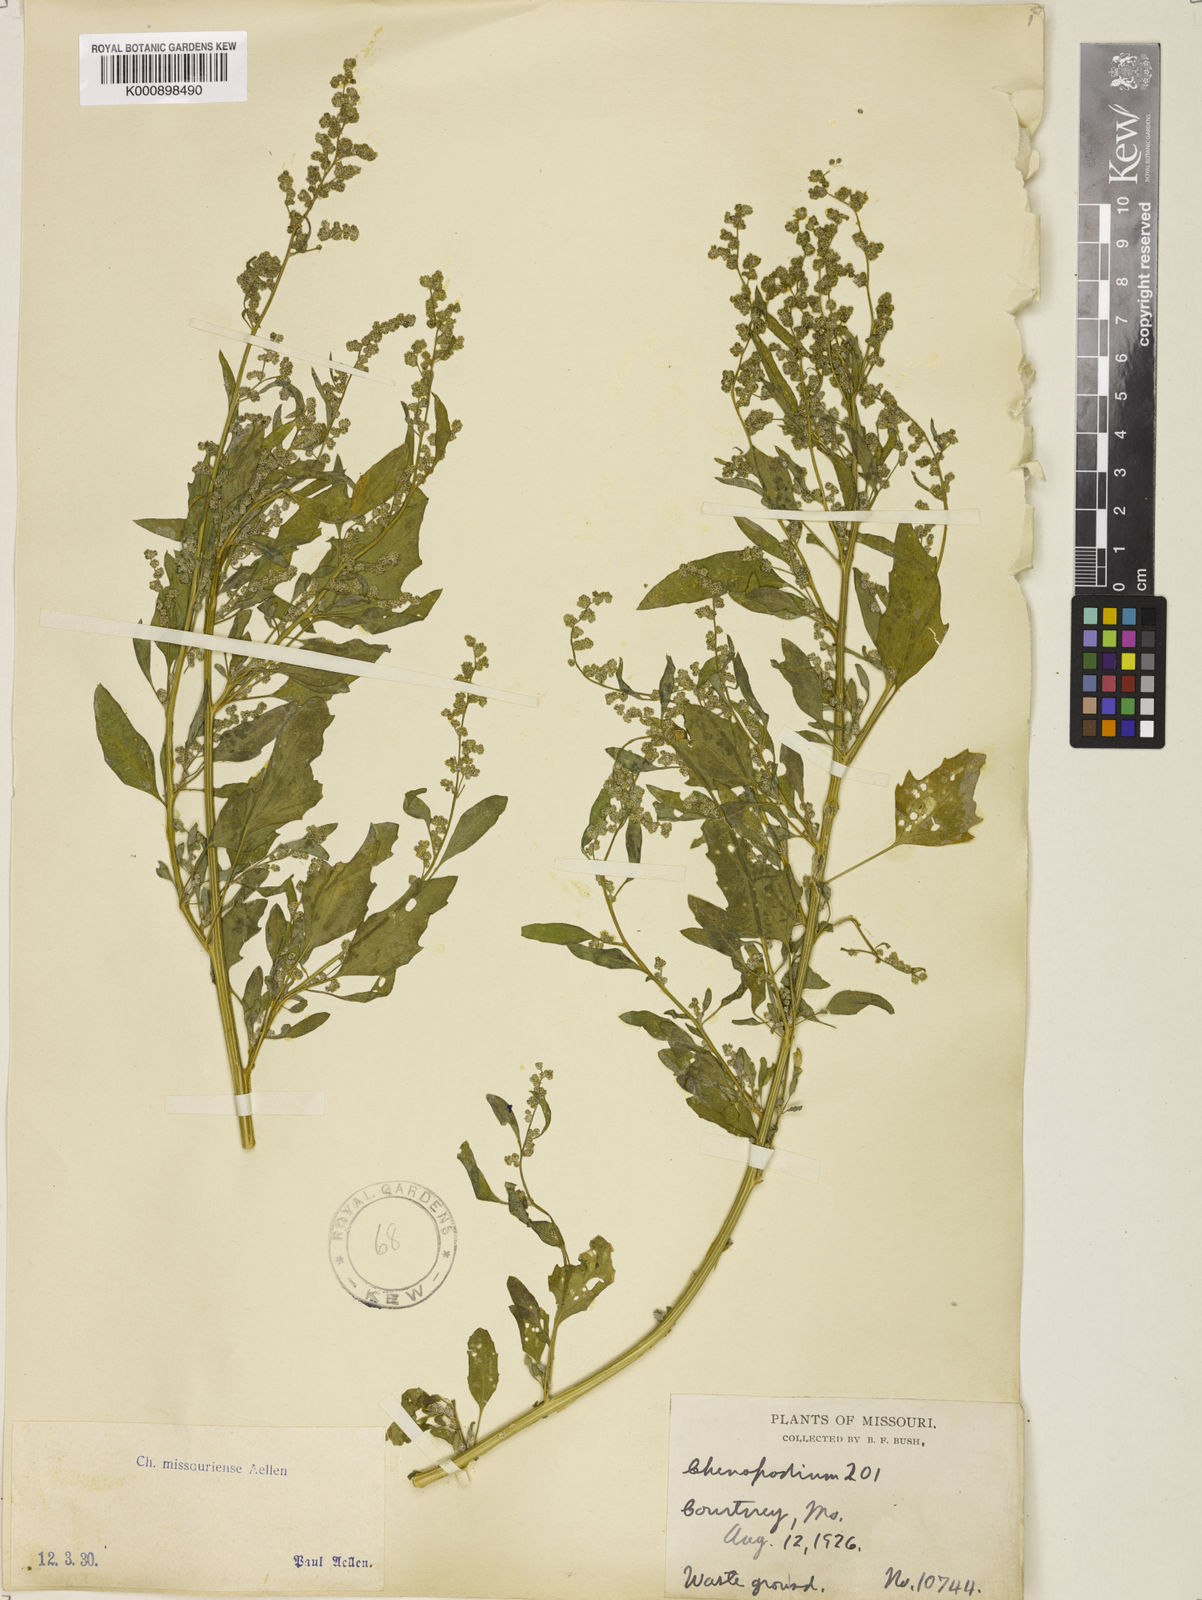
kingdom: Plantae
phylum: Tracheophyta
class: Magnoliopsida
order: Caryophyllales
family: Amaranthaceae
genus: Chenopodium
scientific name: Chenopodium album
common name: Fat-hen
